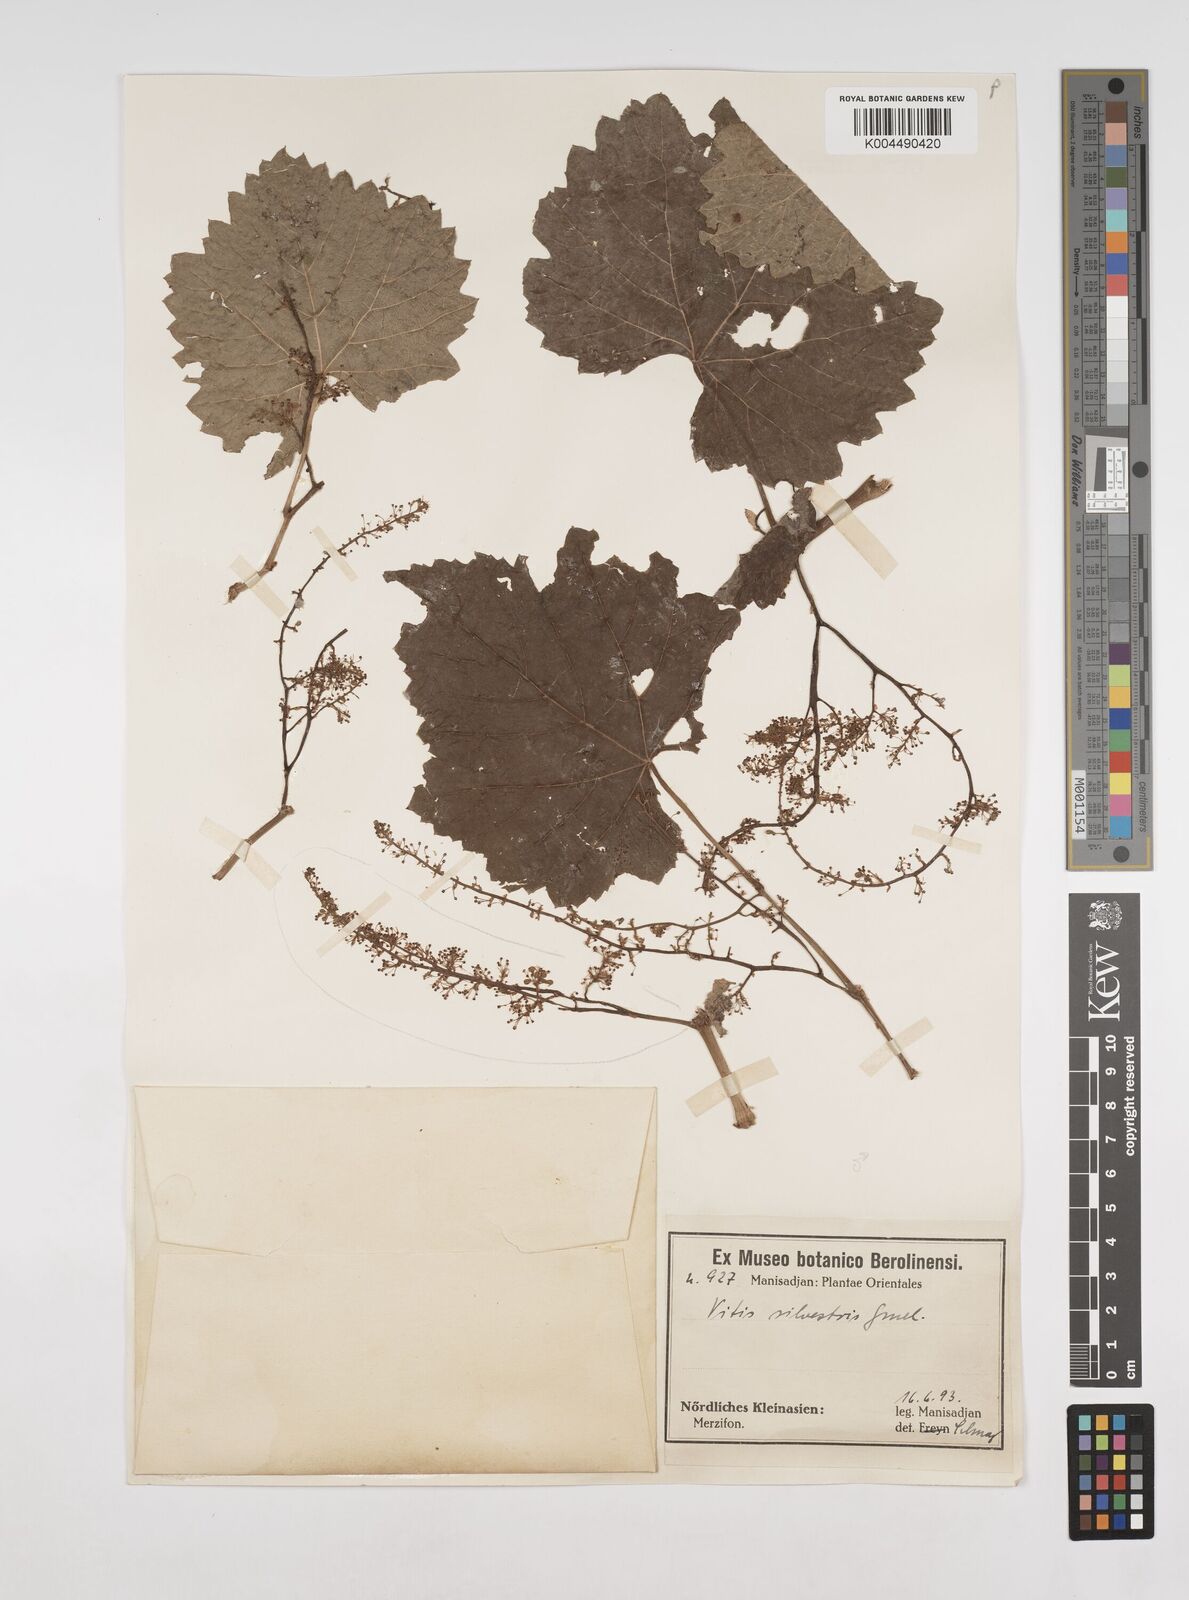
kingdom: Plantae
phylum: Tracheophyta
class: Magnoliopsida
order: Vitales
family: Vitaceae
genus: Vitis
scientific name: Vitis gmelinii
